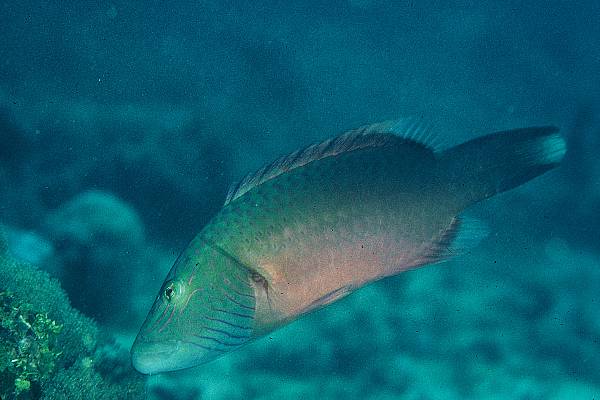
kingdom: Animalia
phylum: Chordata
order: Perciformes
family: Labridae
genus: Oxycheilinus
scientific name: Oxycheilinus digramma
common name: Bandcheek wrasse
